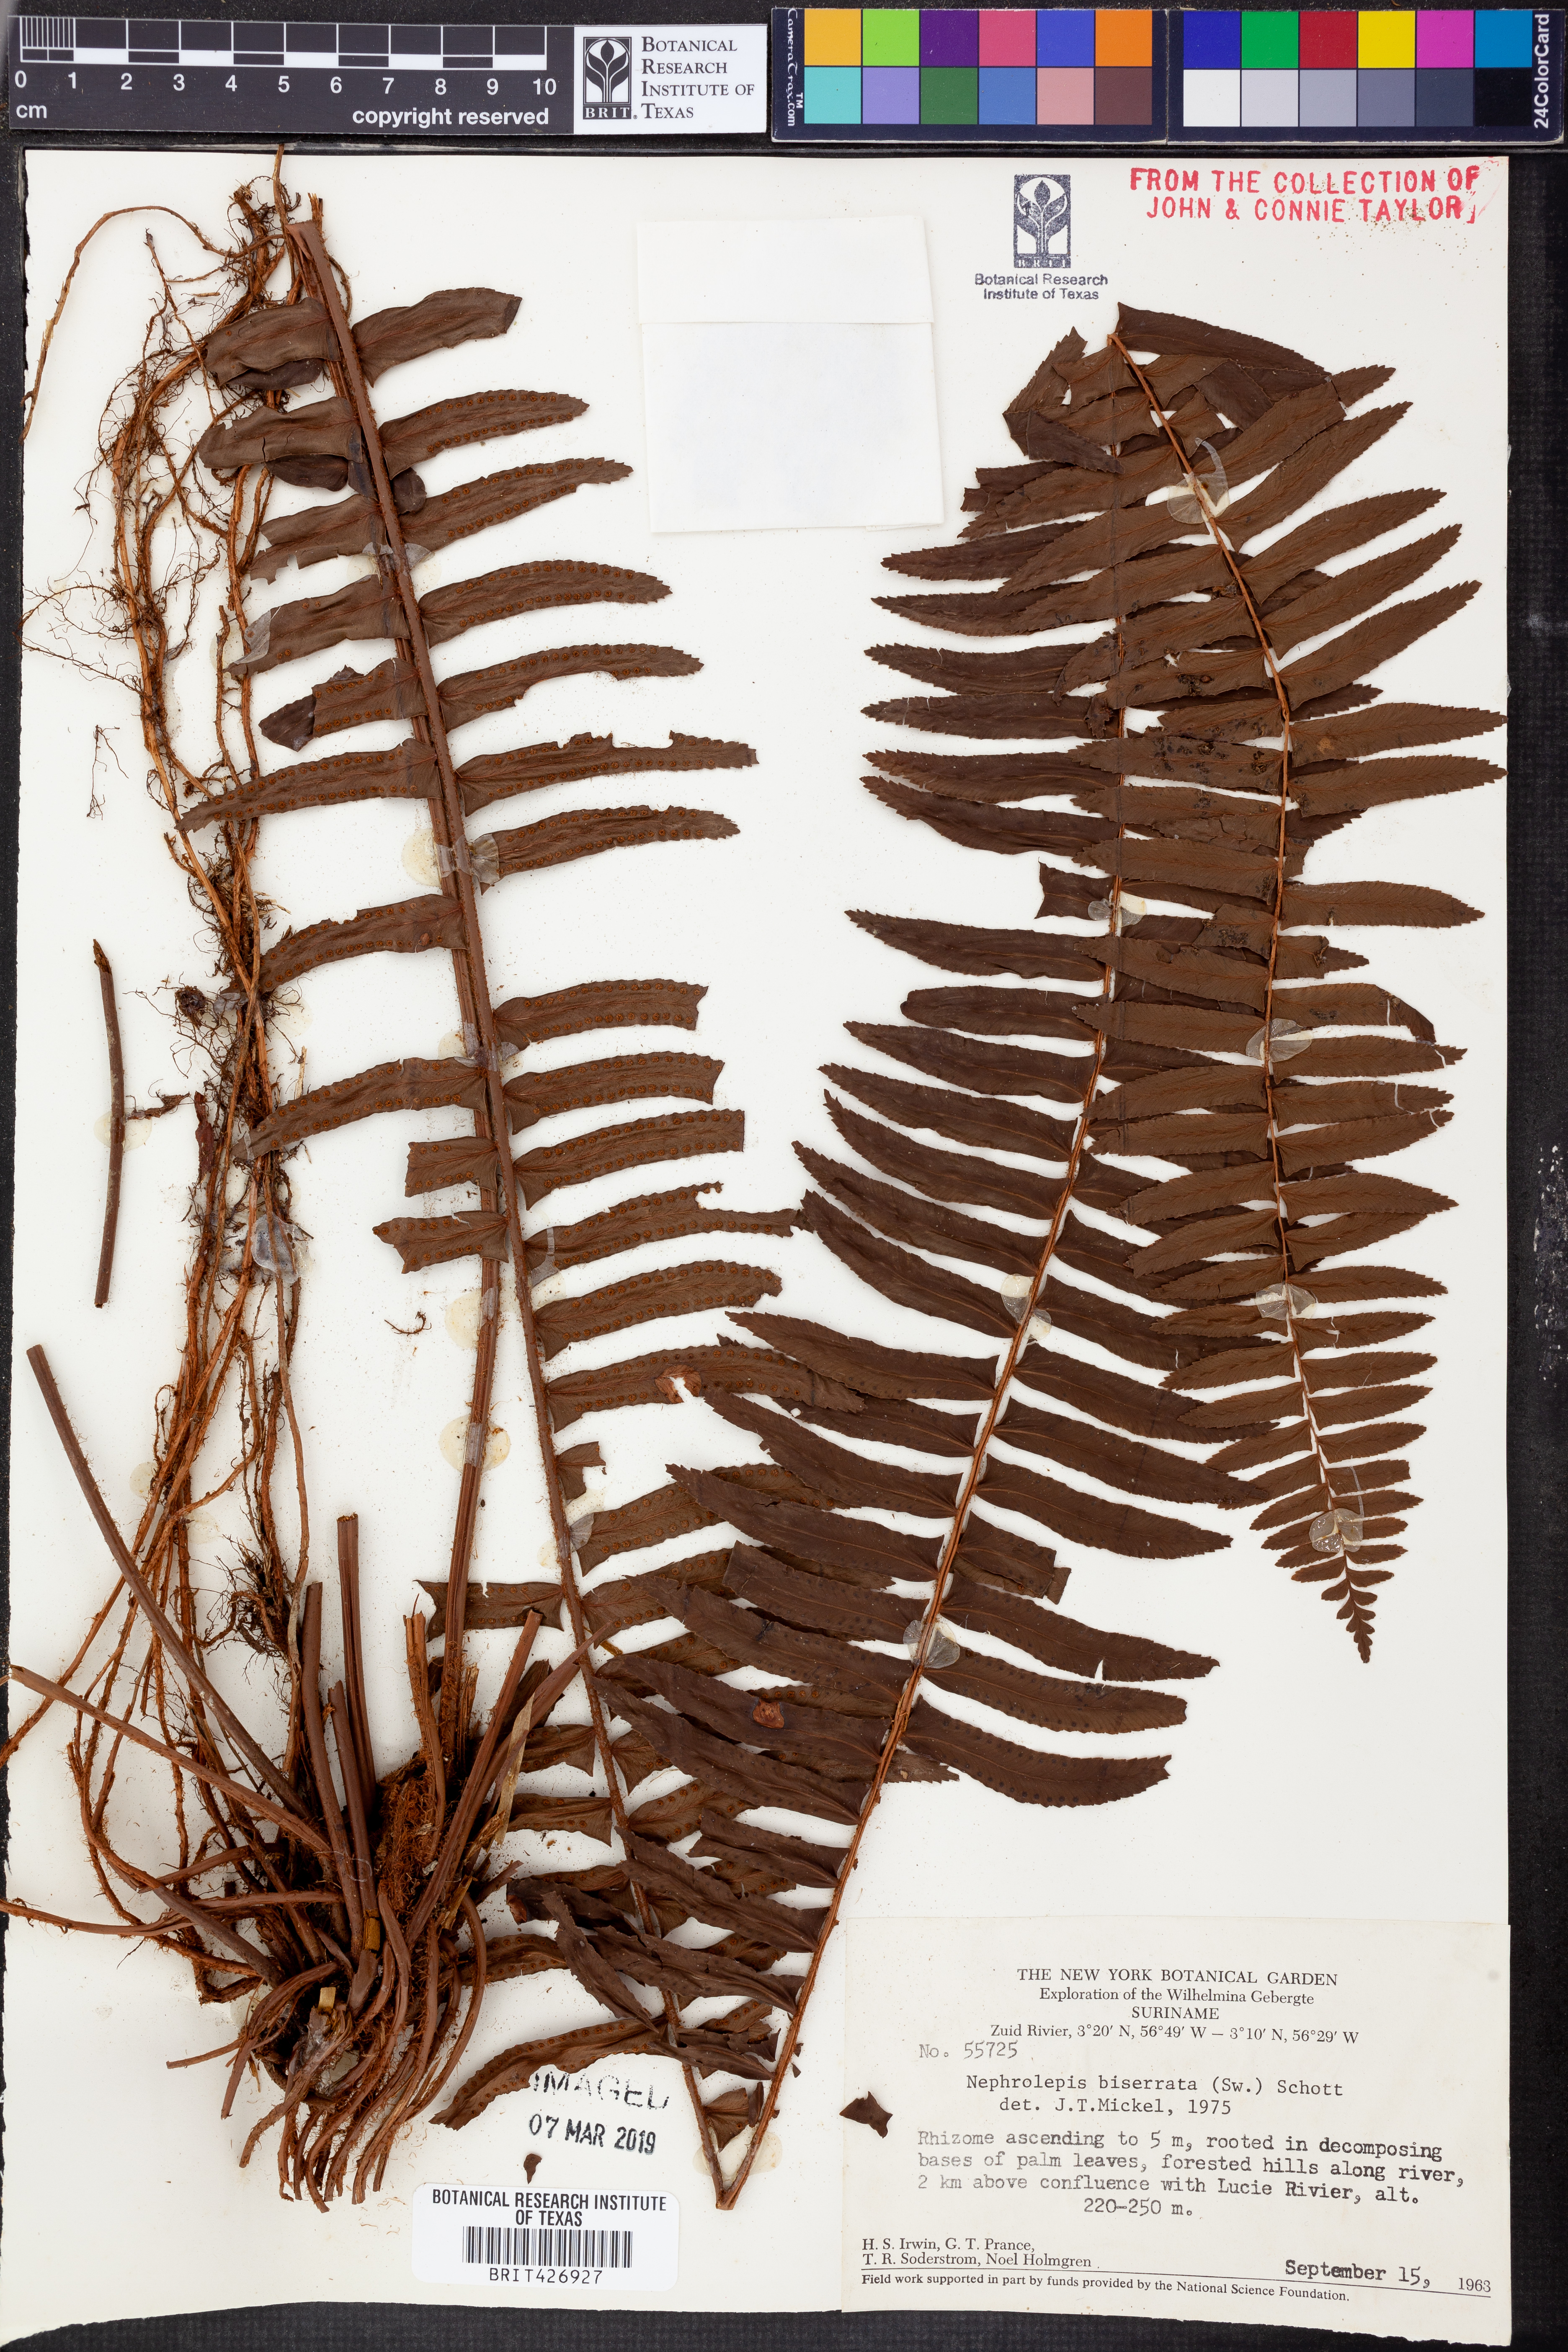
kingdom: Plantae
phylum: Tracheophyta
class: Polypodiopsida
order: Polypodiales
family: Nephrolepidaceae
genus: Nephrolepis
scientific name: Nephrolepis biserrata
